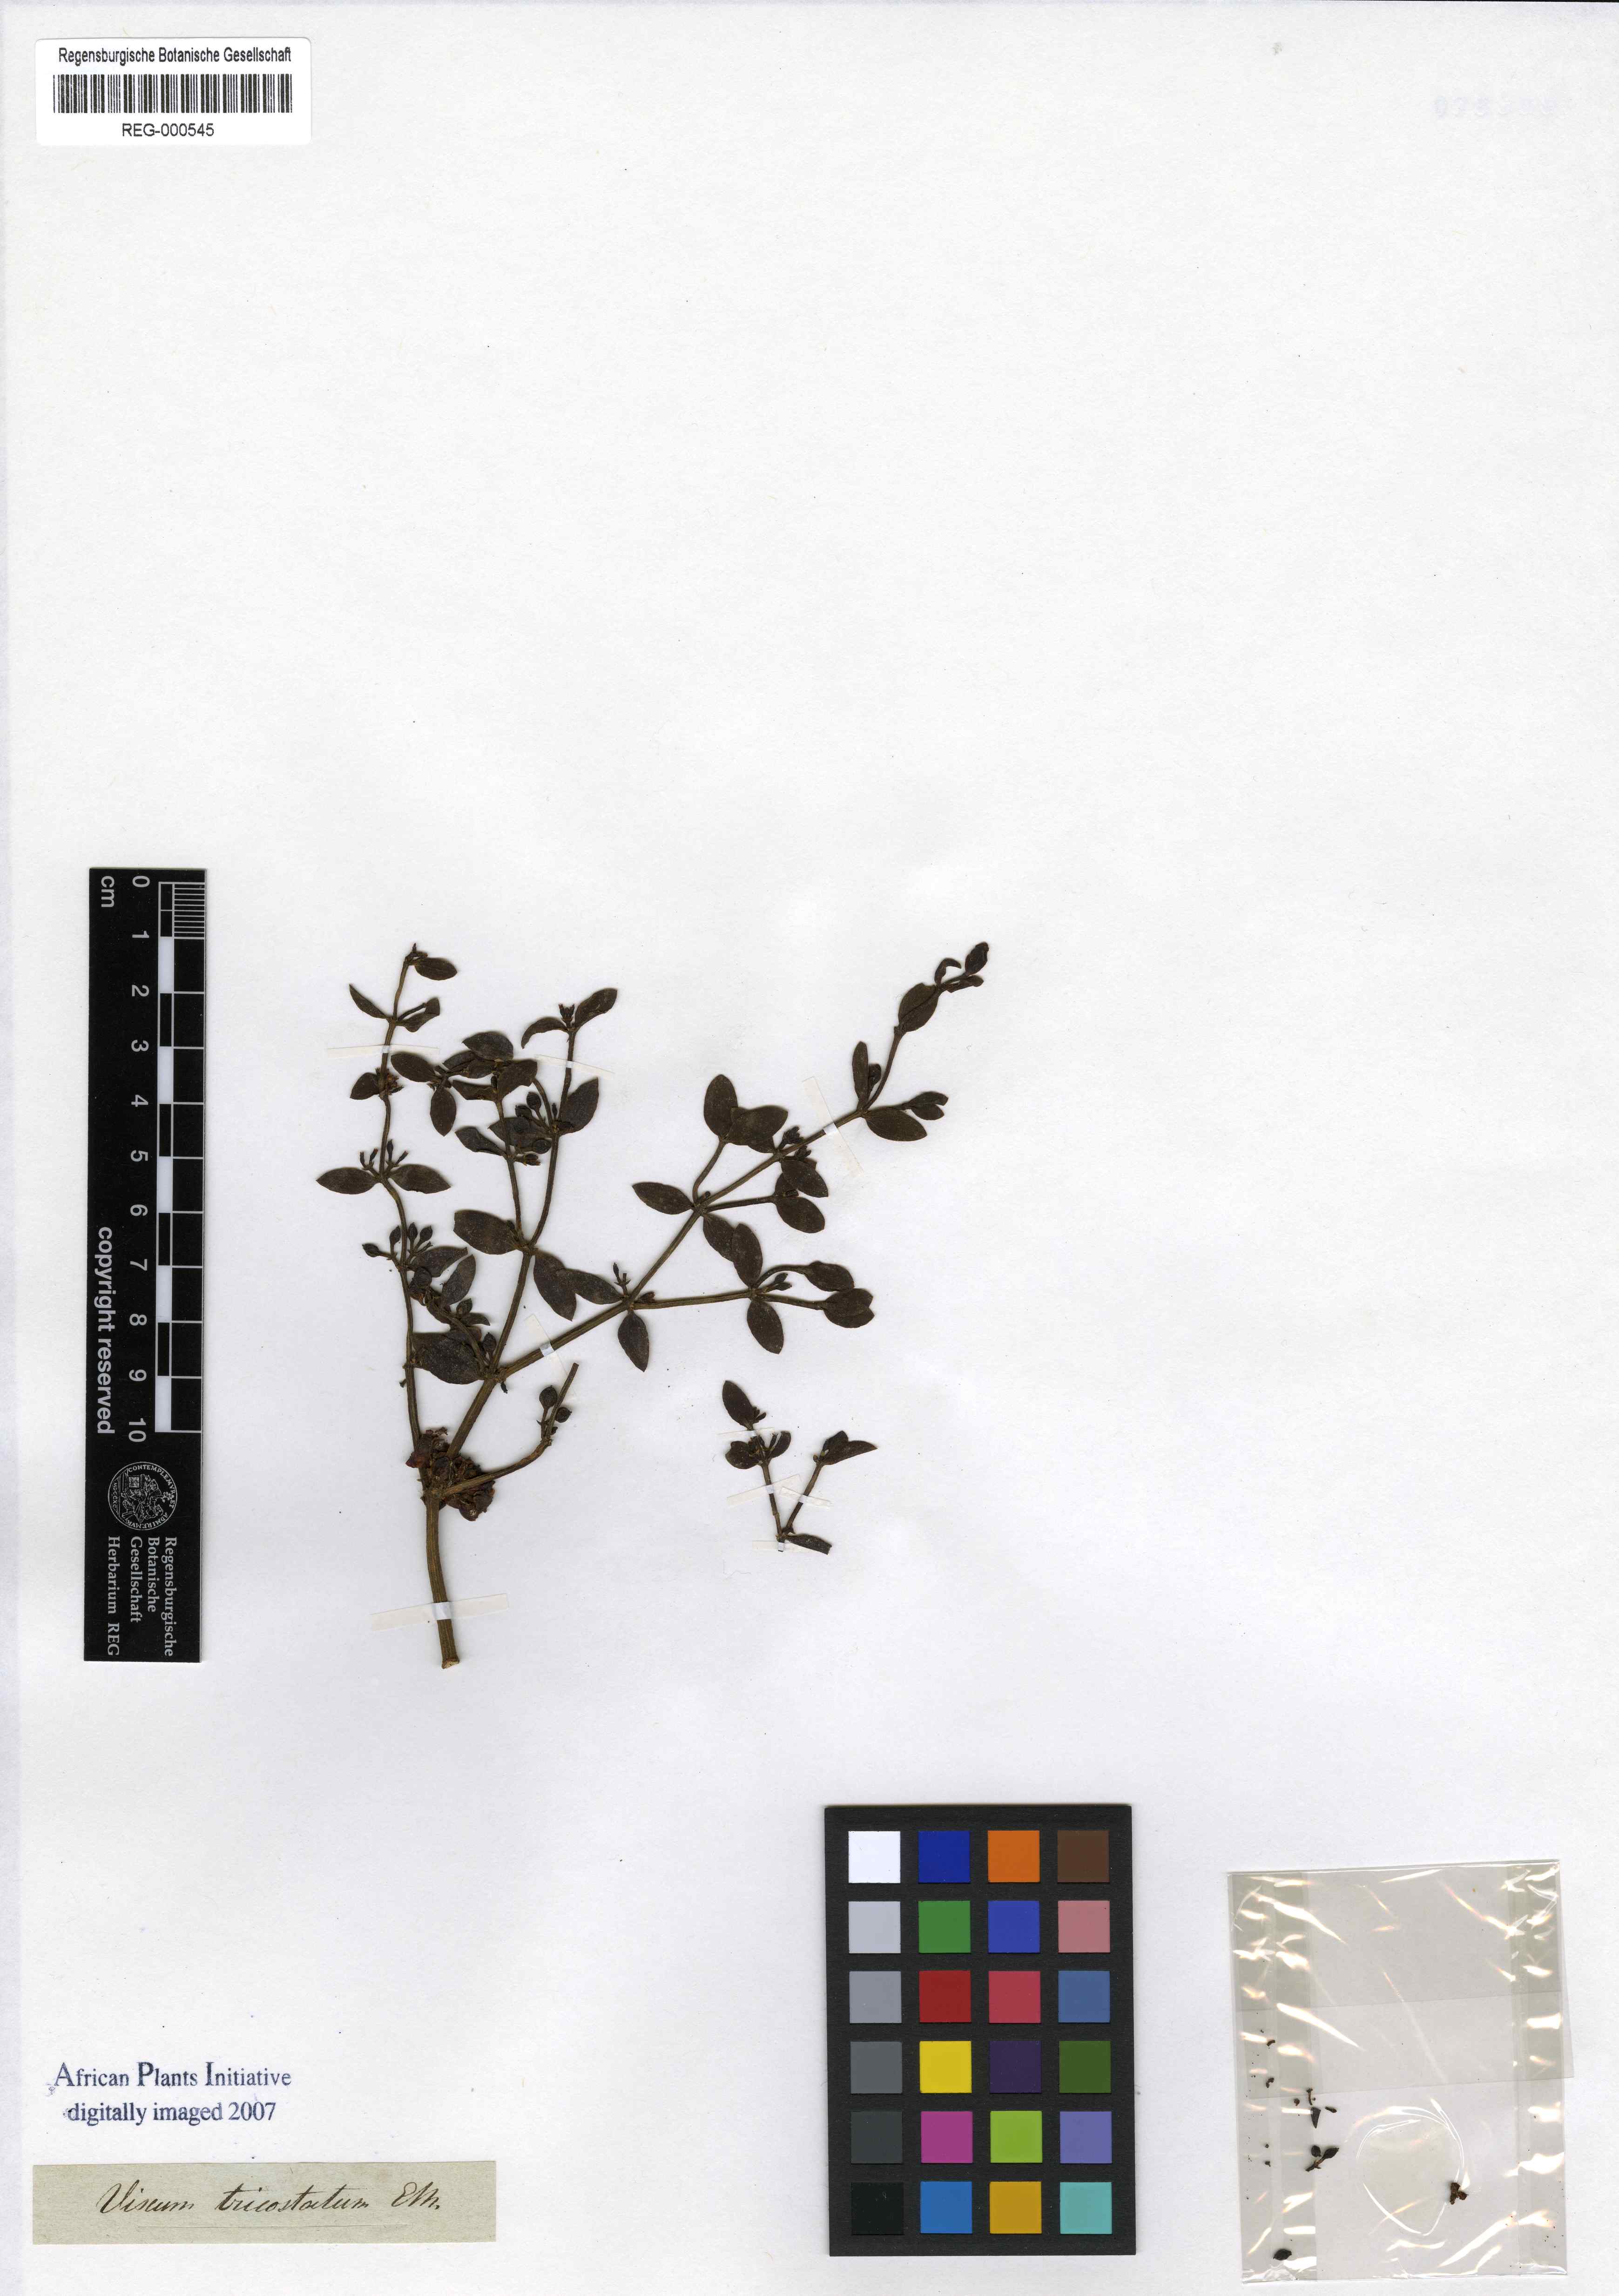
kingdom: Plantae
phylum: Tracheophyta
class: Magnoliopsida
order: Santalales
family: Viscaceae
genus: Viscum
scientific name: Viscum rotundifolium
